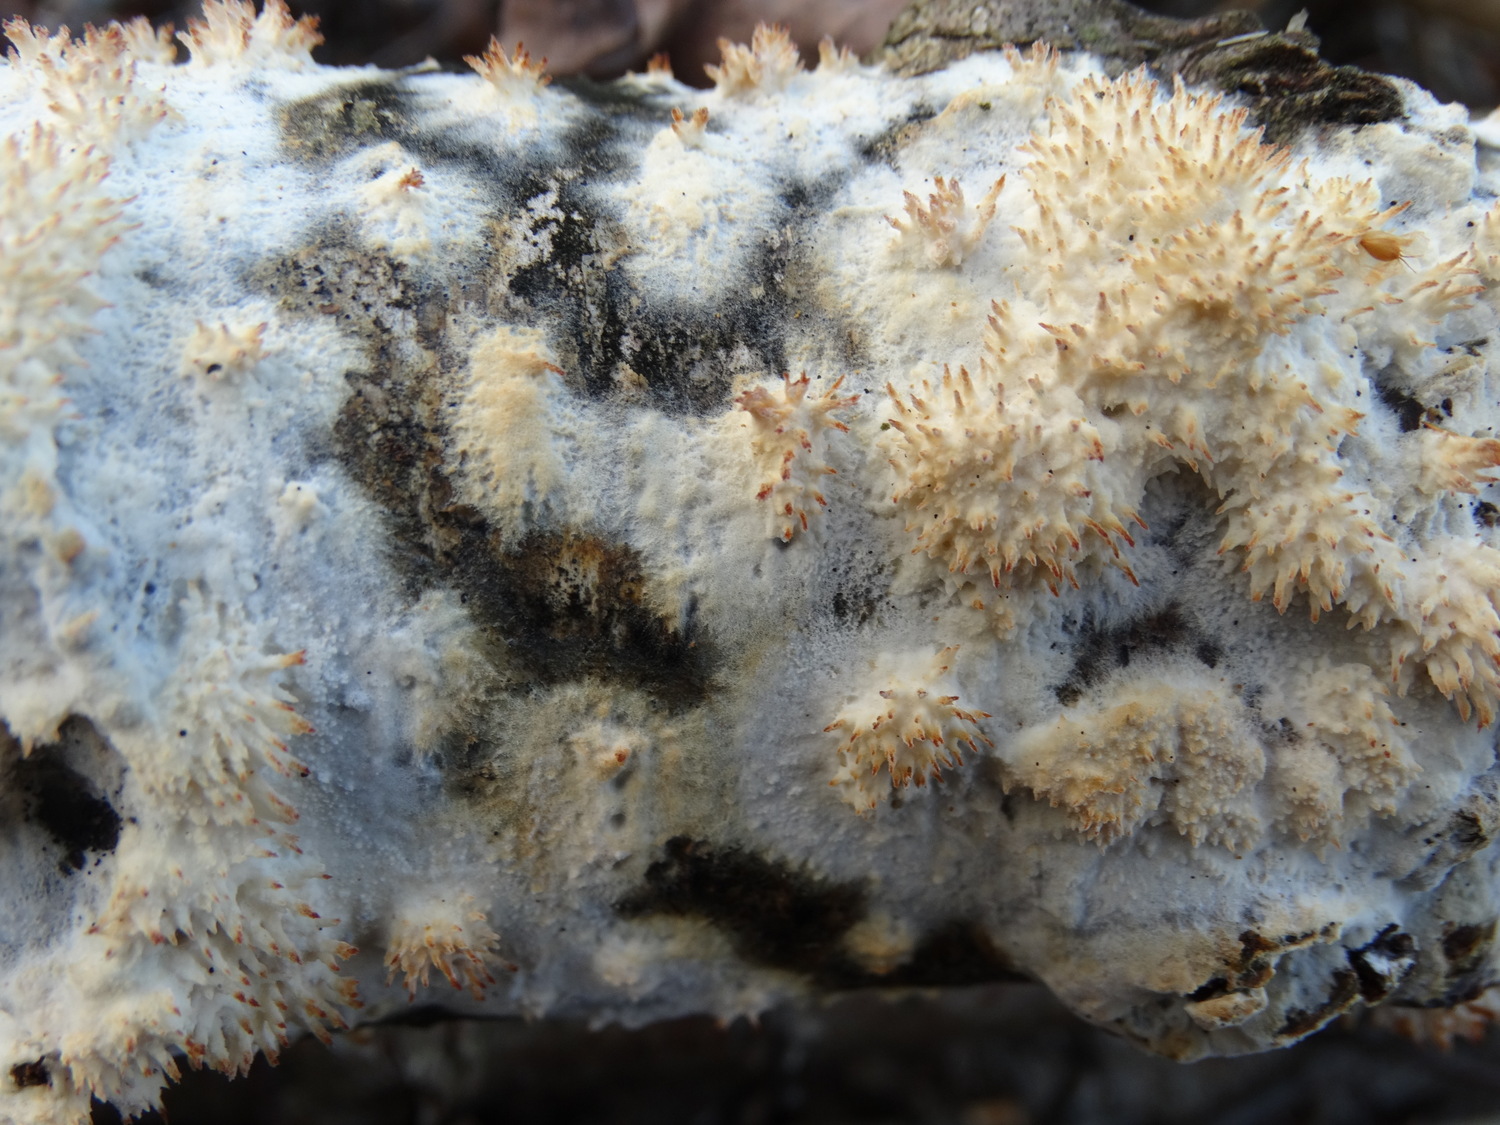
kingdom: Fungi
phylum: Basidiomycota
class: Agaricomycetes
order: Corticiales
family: Corticiaceae
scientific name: Corticiaceae
